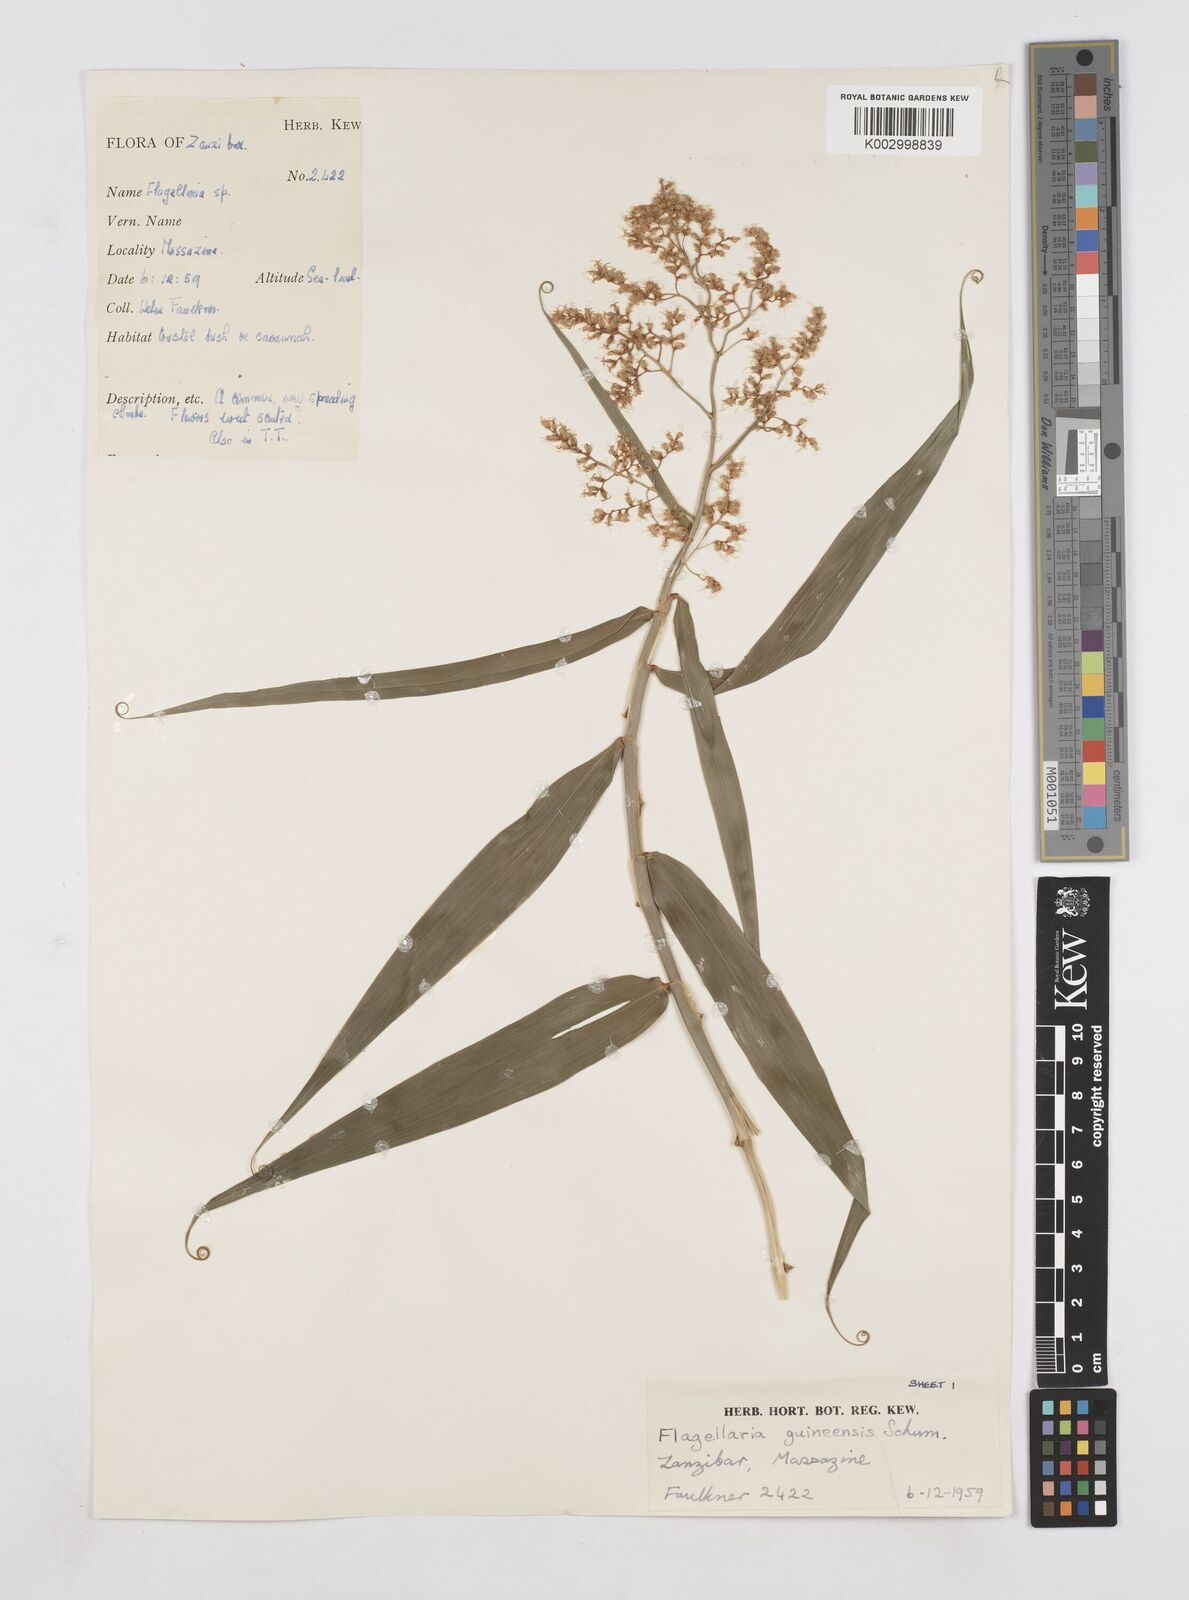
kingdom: Plantae
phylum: Tracheophyta
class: Liliopsida
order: Poales
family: Flagellariaceae
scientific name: Flagellariaceae
